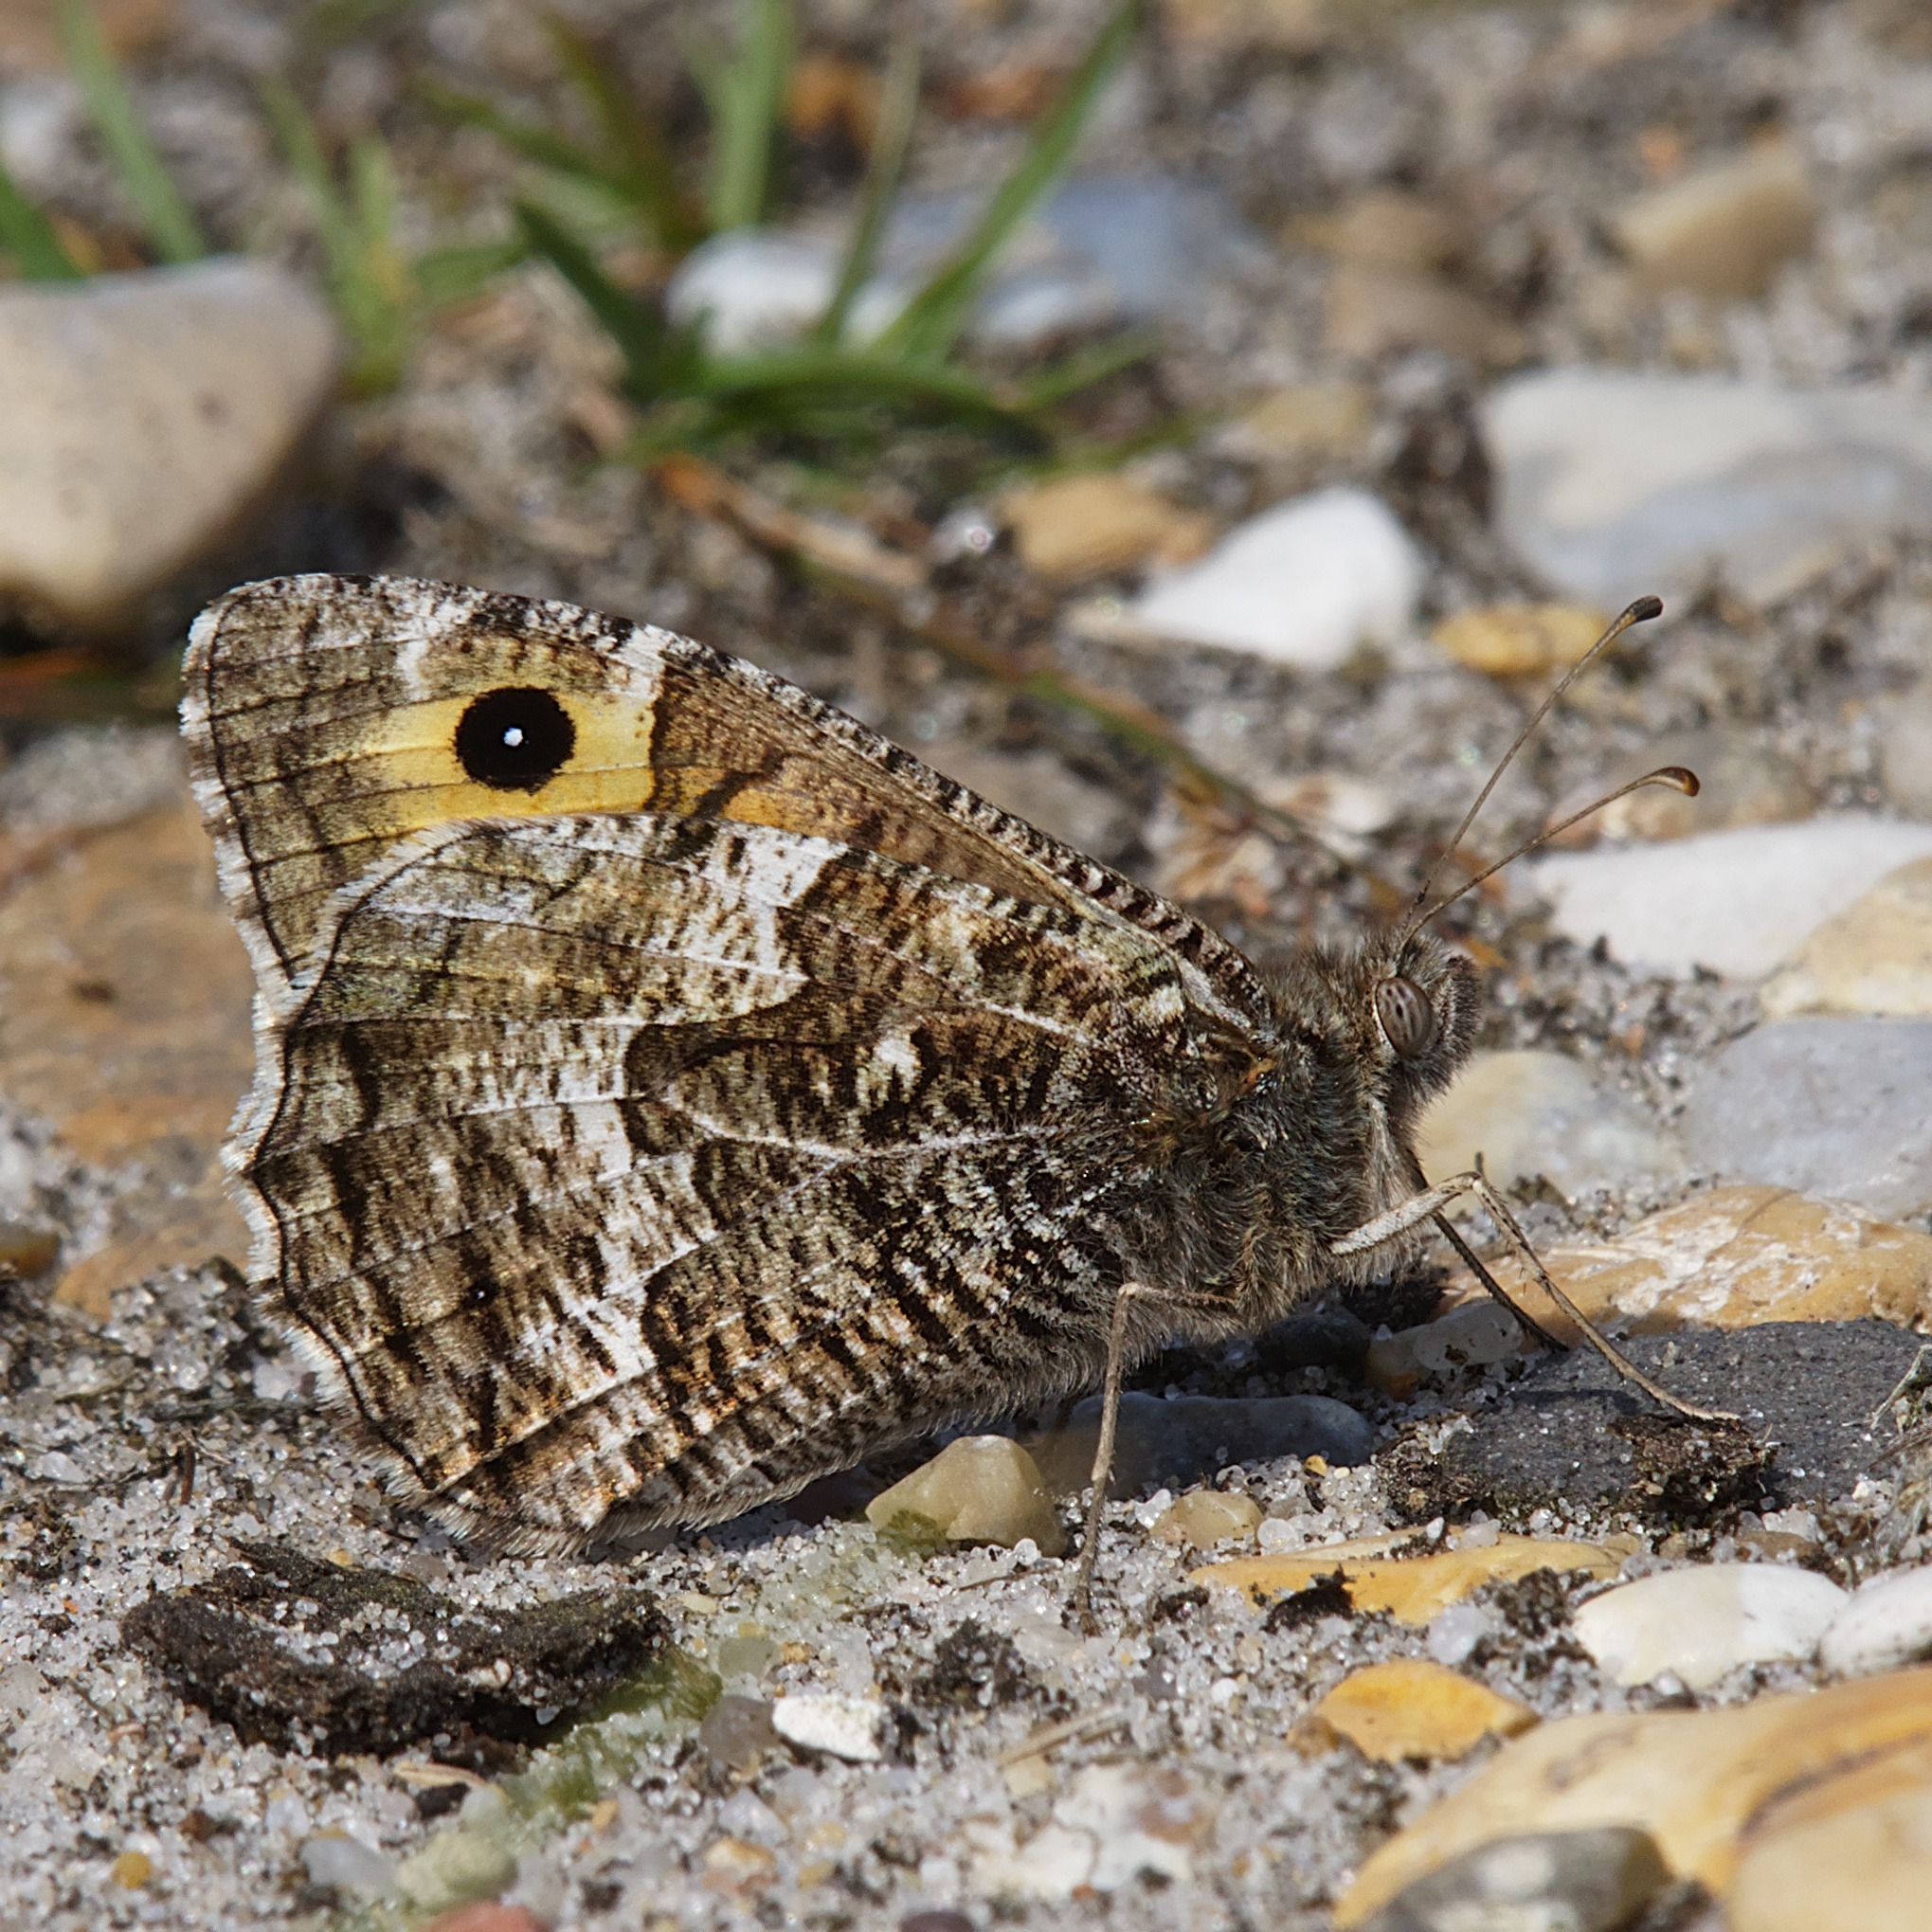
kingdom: Animalia
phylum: Arthropoda
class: Insecta
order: Lepidoptera
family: Nymphalidae
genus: Hipparchia
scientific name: Hipparchia semele
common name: Sandrandøje
